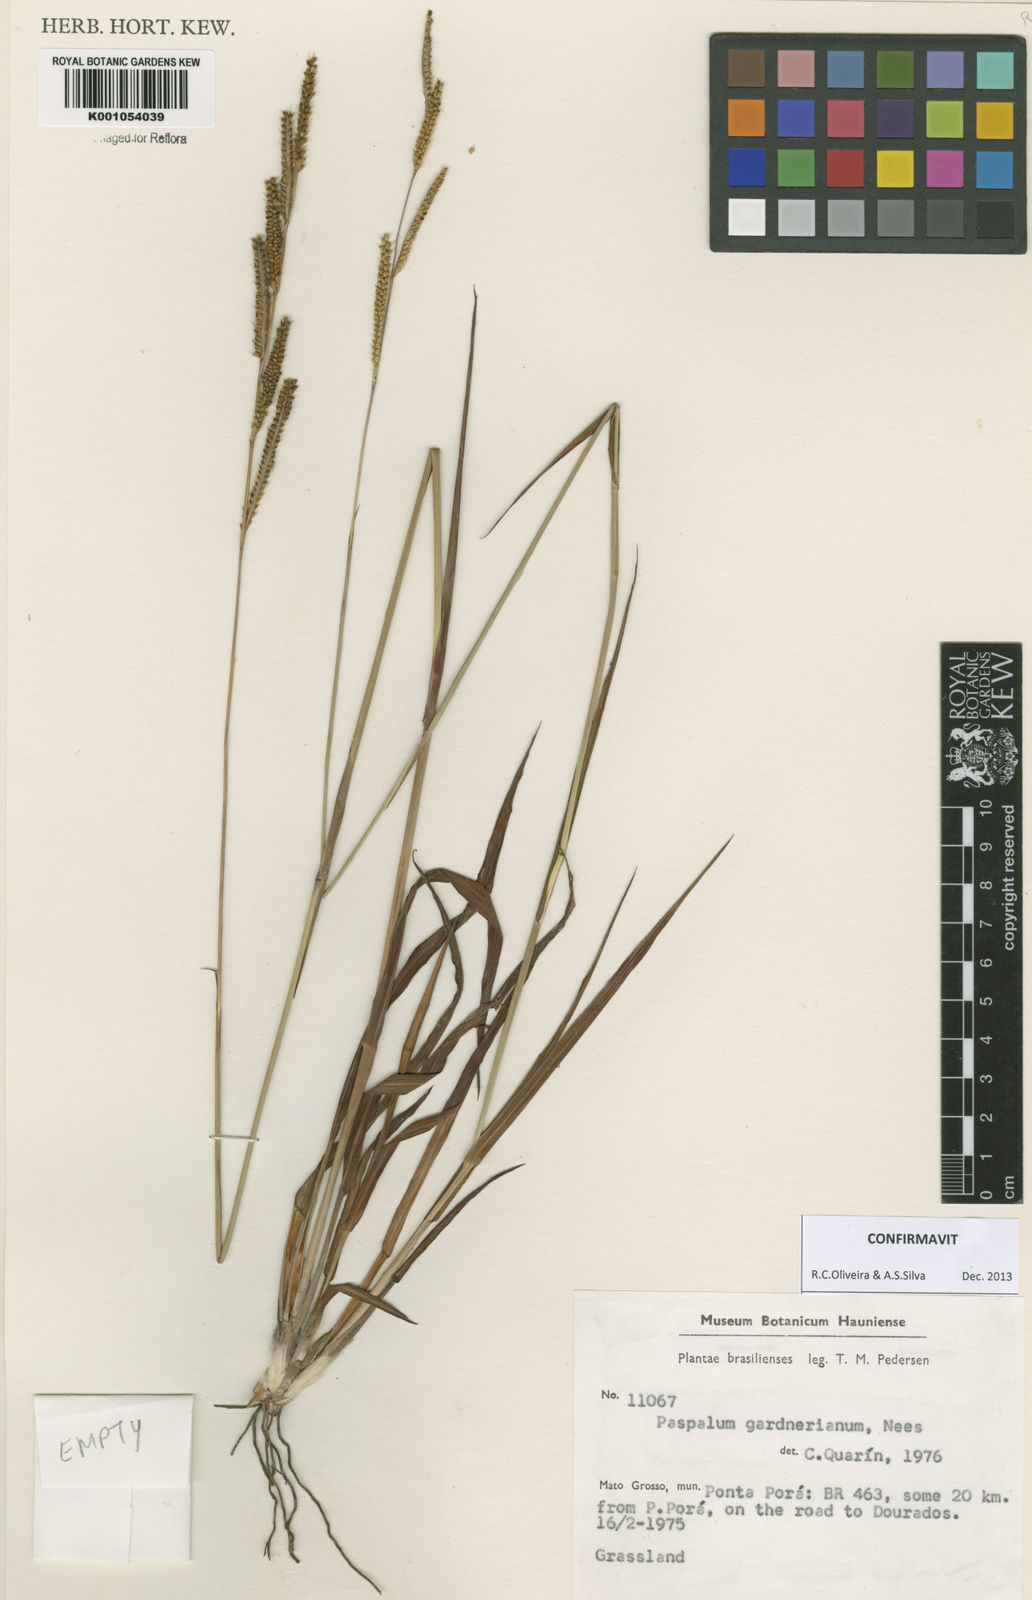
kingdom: Plantae
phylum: Tracheophyta
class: Liliopsida
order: Poales
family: Poaceae
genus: Paspalum
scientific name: Paspalum gardnerianum
